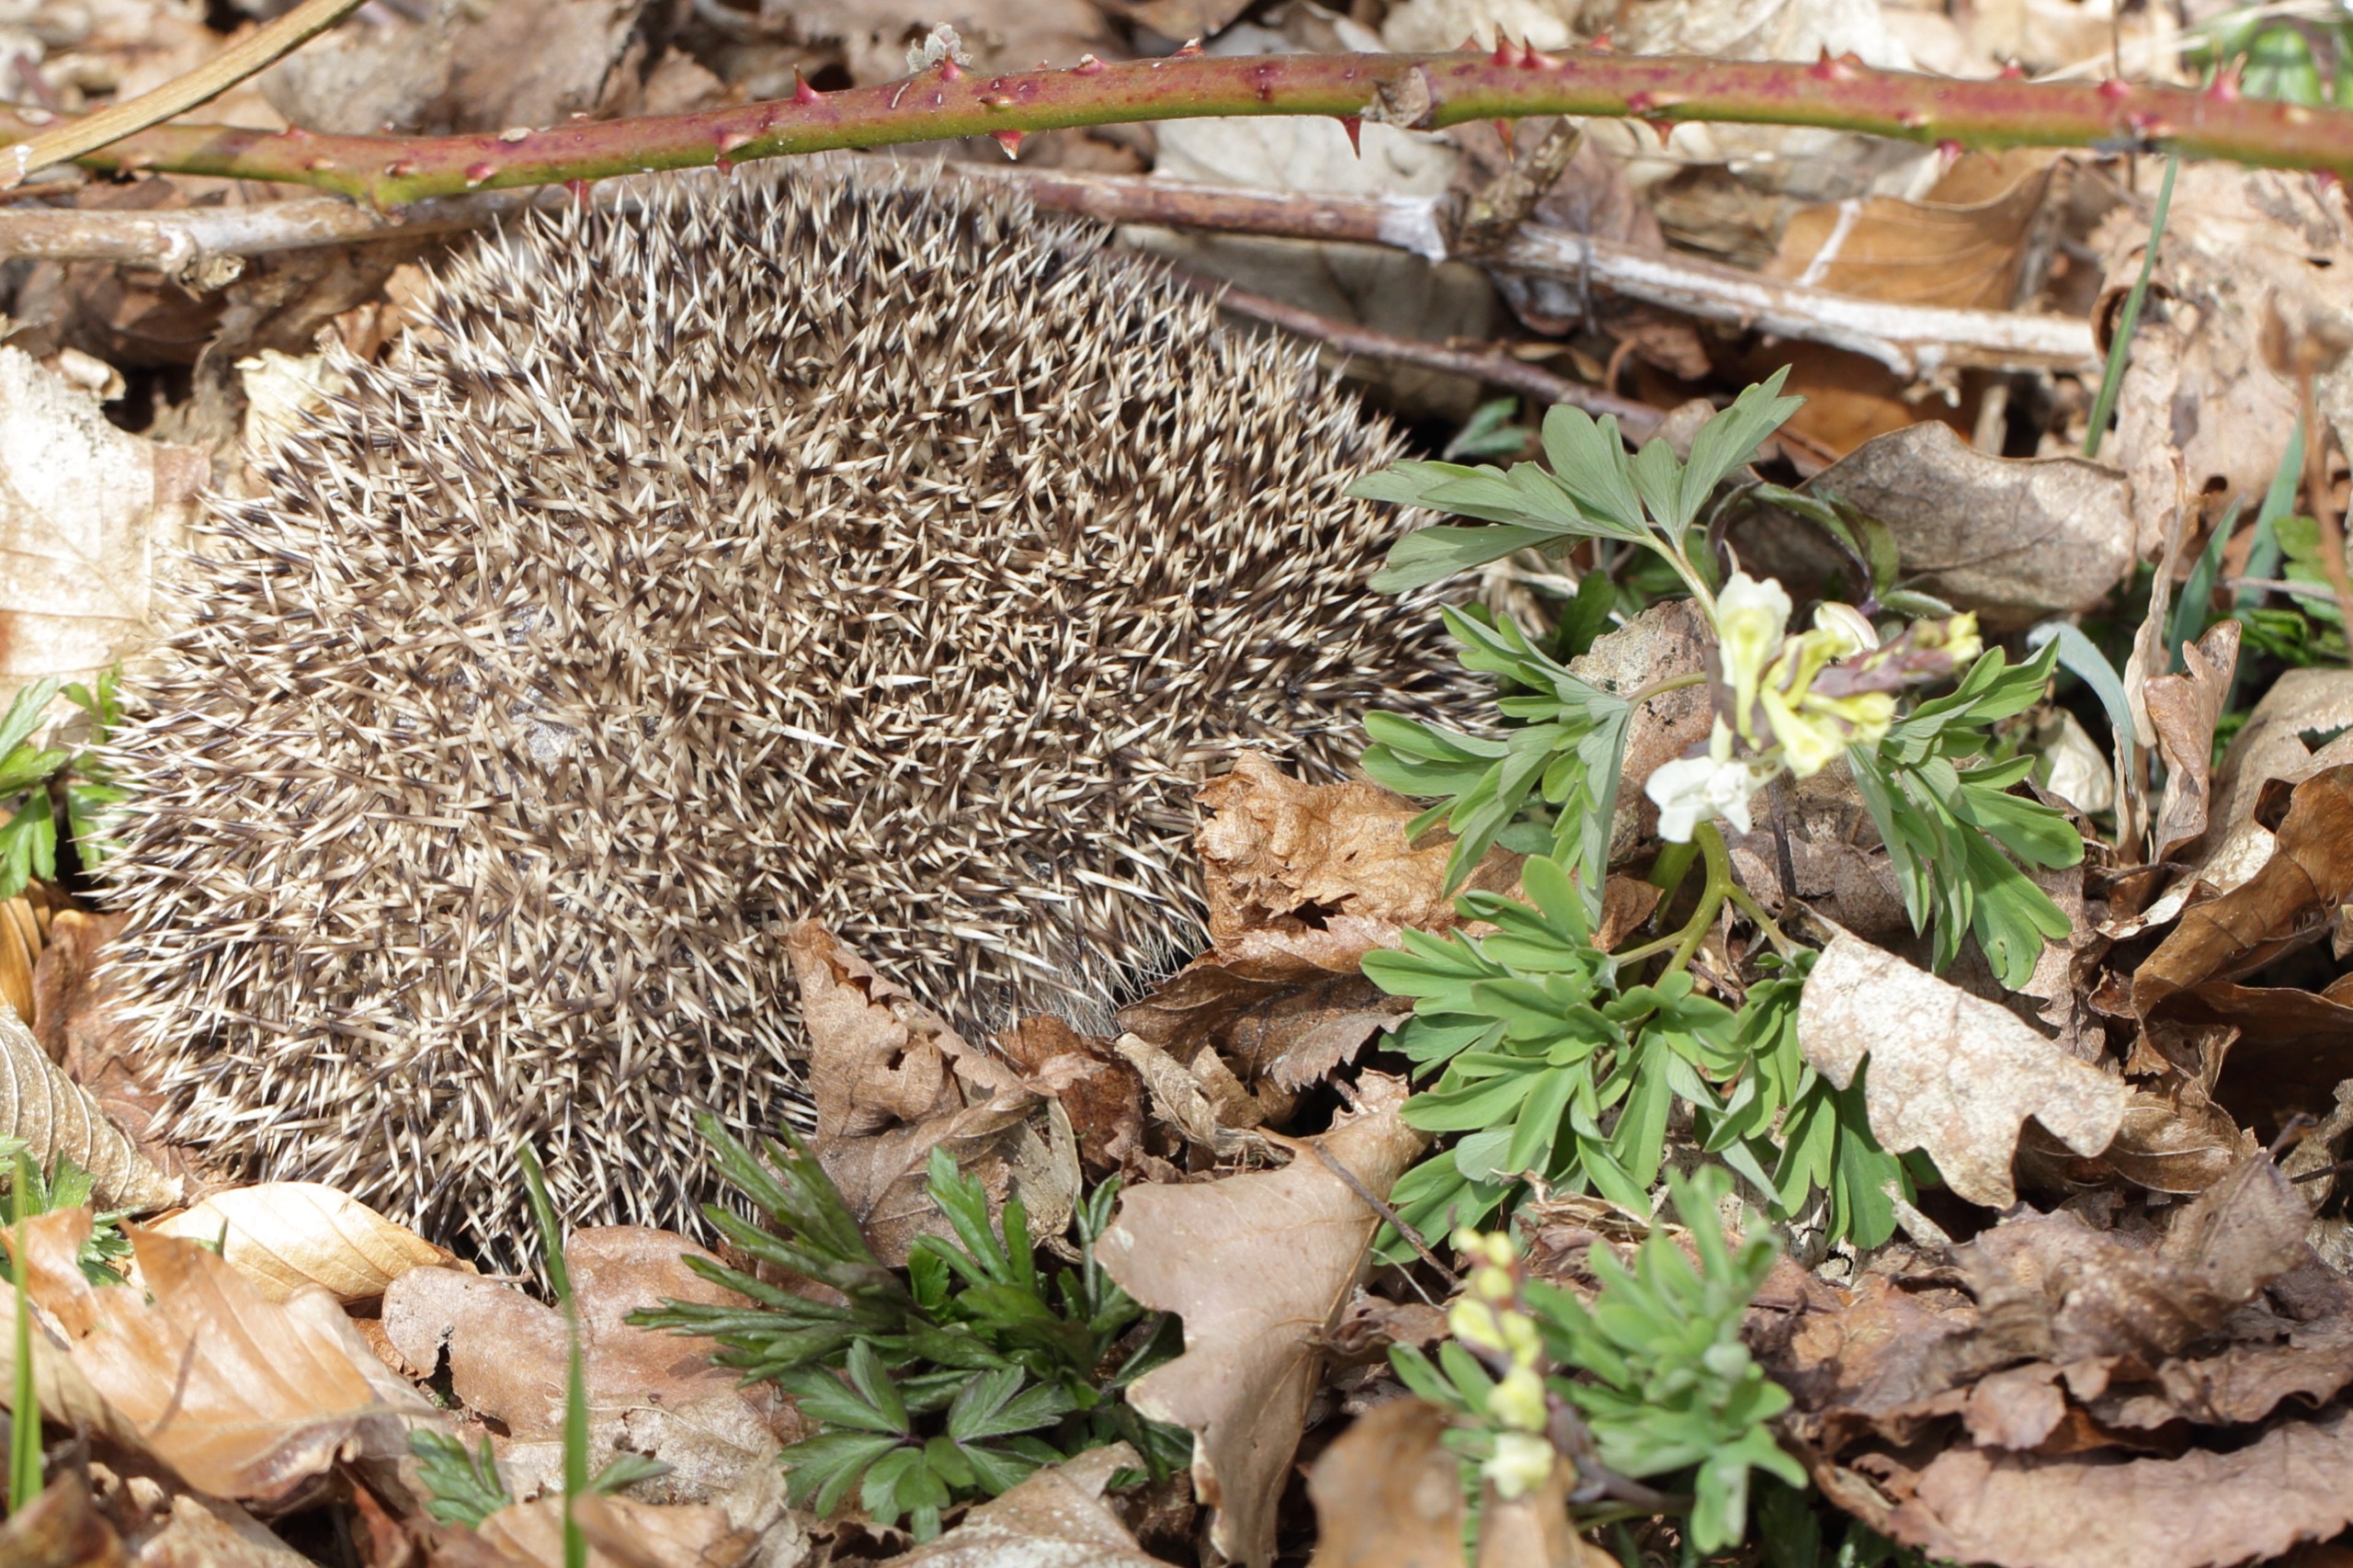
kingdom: Animalia
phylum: Chordata
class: Mammalia
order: Erinaceomorpha
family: Erinaceidae
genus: Erinaceus
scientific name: Erinaceus europaeus
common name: Pindsvin
